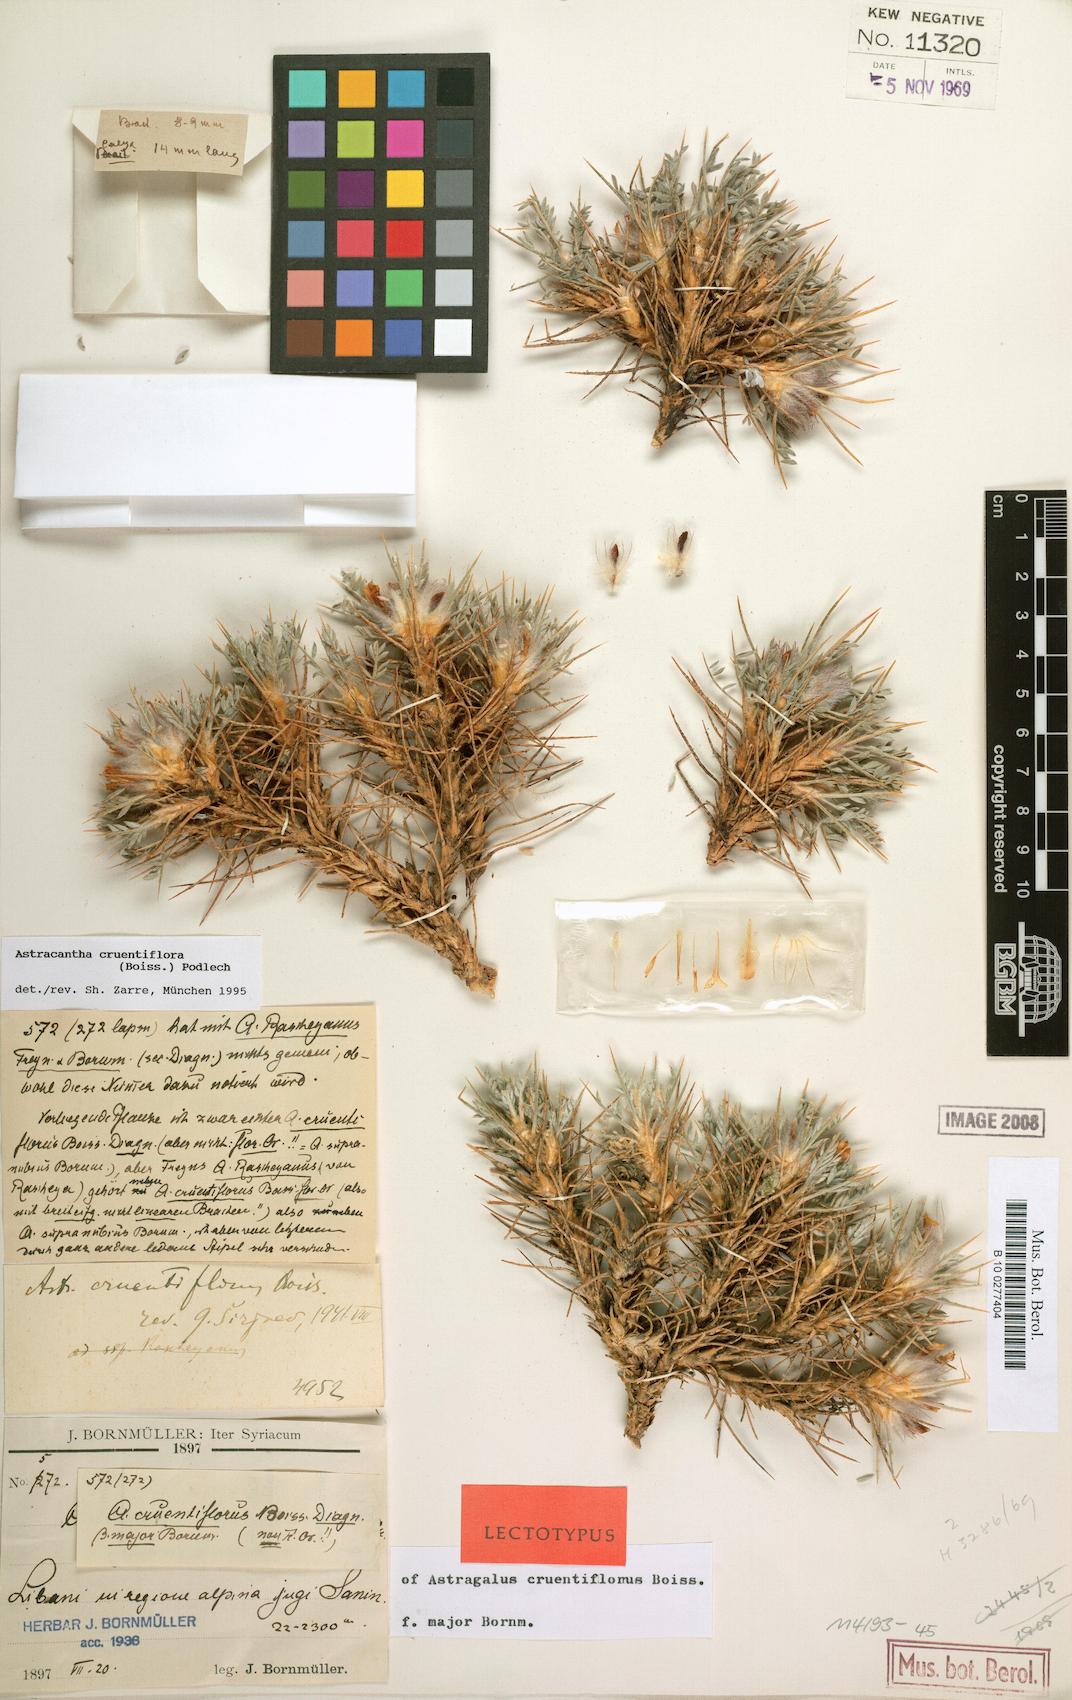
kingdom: Plantae
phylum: Tracheophyta
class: Magnoliopsida
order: Fabales
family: Fabaceae
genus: Astragalus
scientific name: Astragalus cruentiflorus
